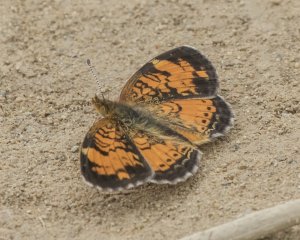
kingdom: Animalia
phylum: Arthropoda
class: Insecta
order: Lepidoptera
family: Nymphalidae
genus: Phyciodes
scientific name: Phyciodes tharos
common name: Northern Crescent
